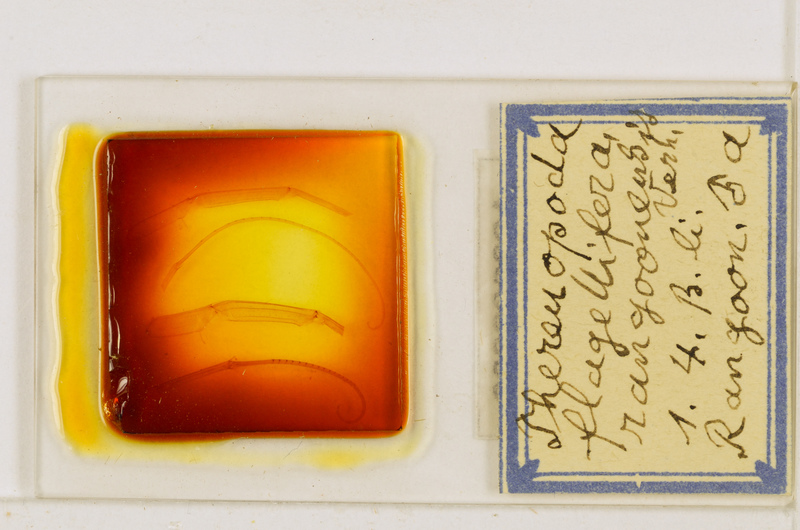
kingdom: Animalia
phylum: Arthropoda
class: Chilopoda
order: Scutigeromorpha
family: Scutigeridae
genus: Thereuopoda
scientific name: Thereuopoda longicornis
